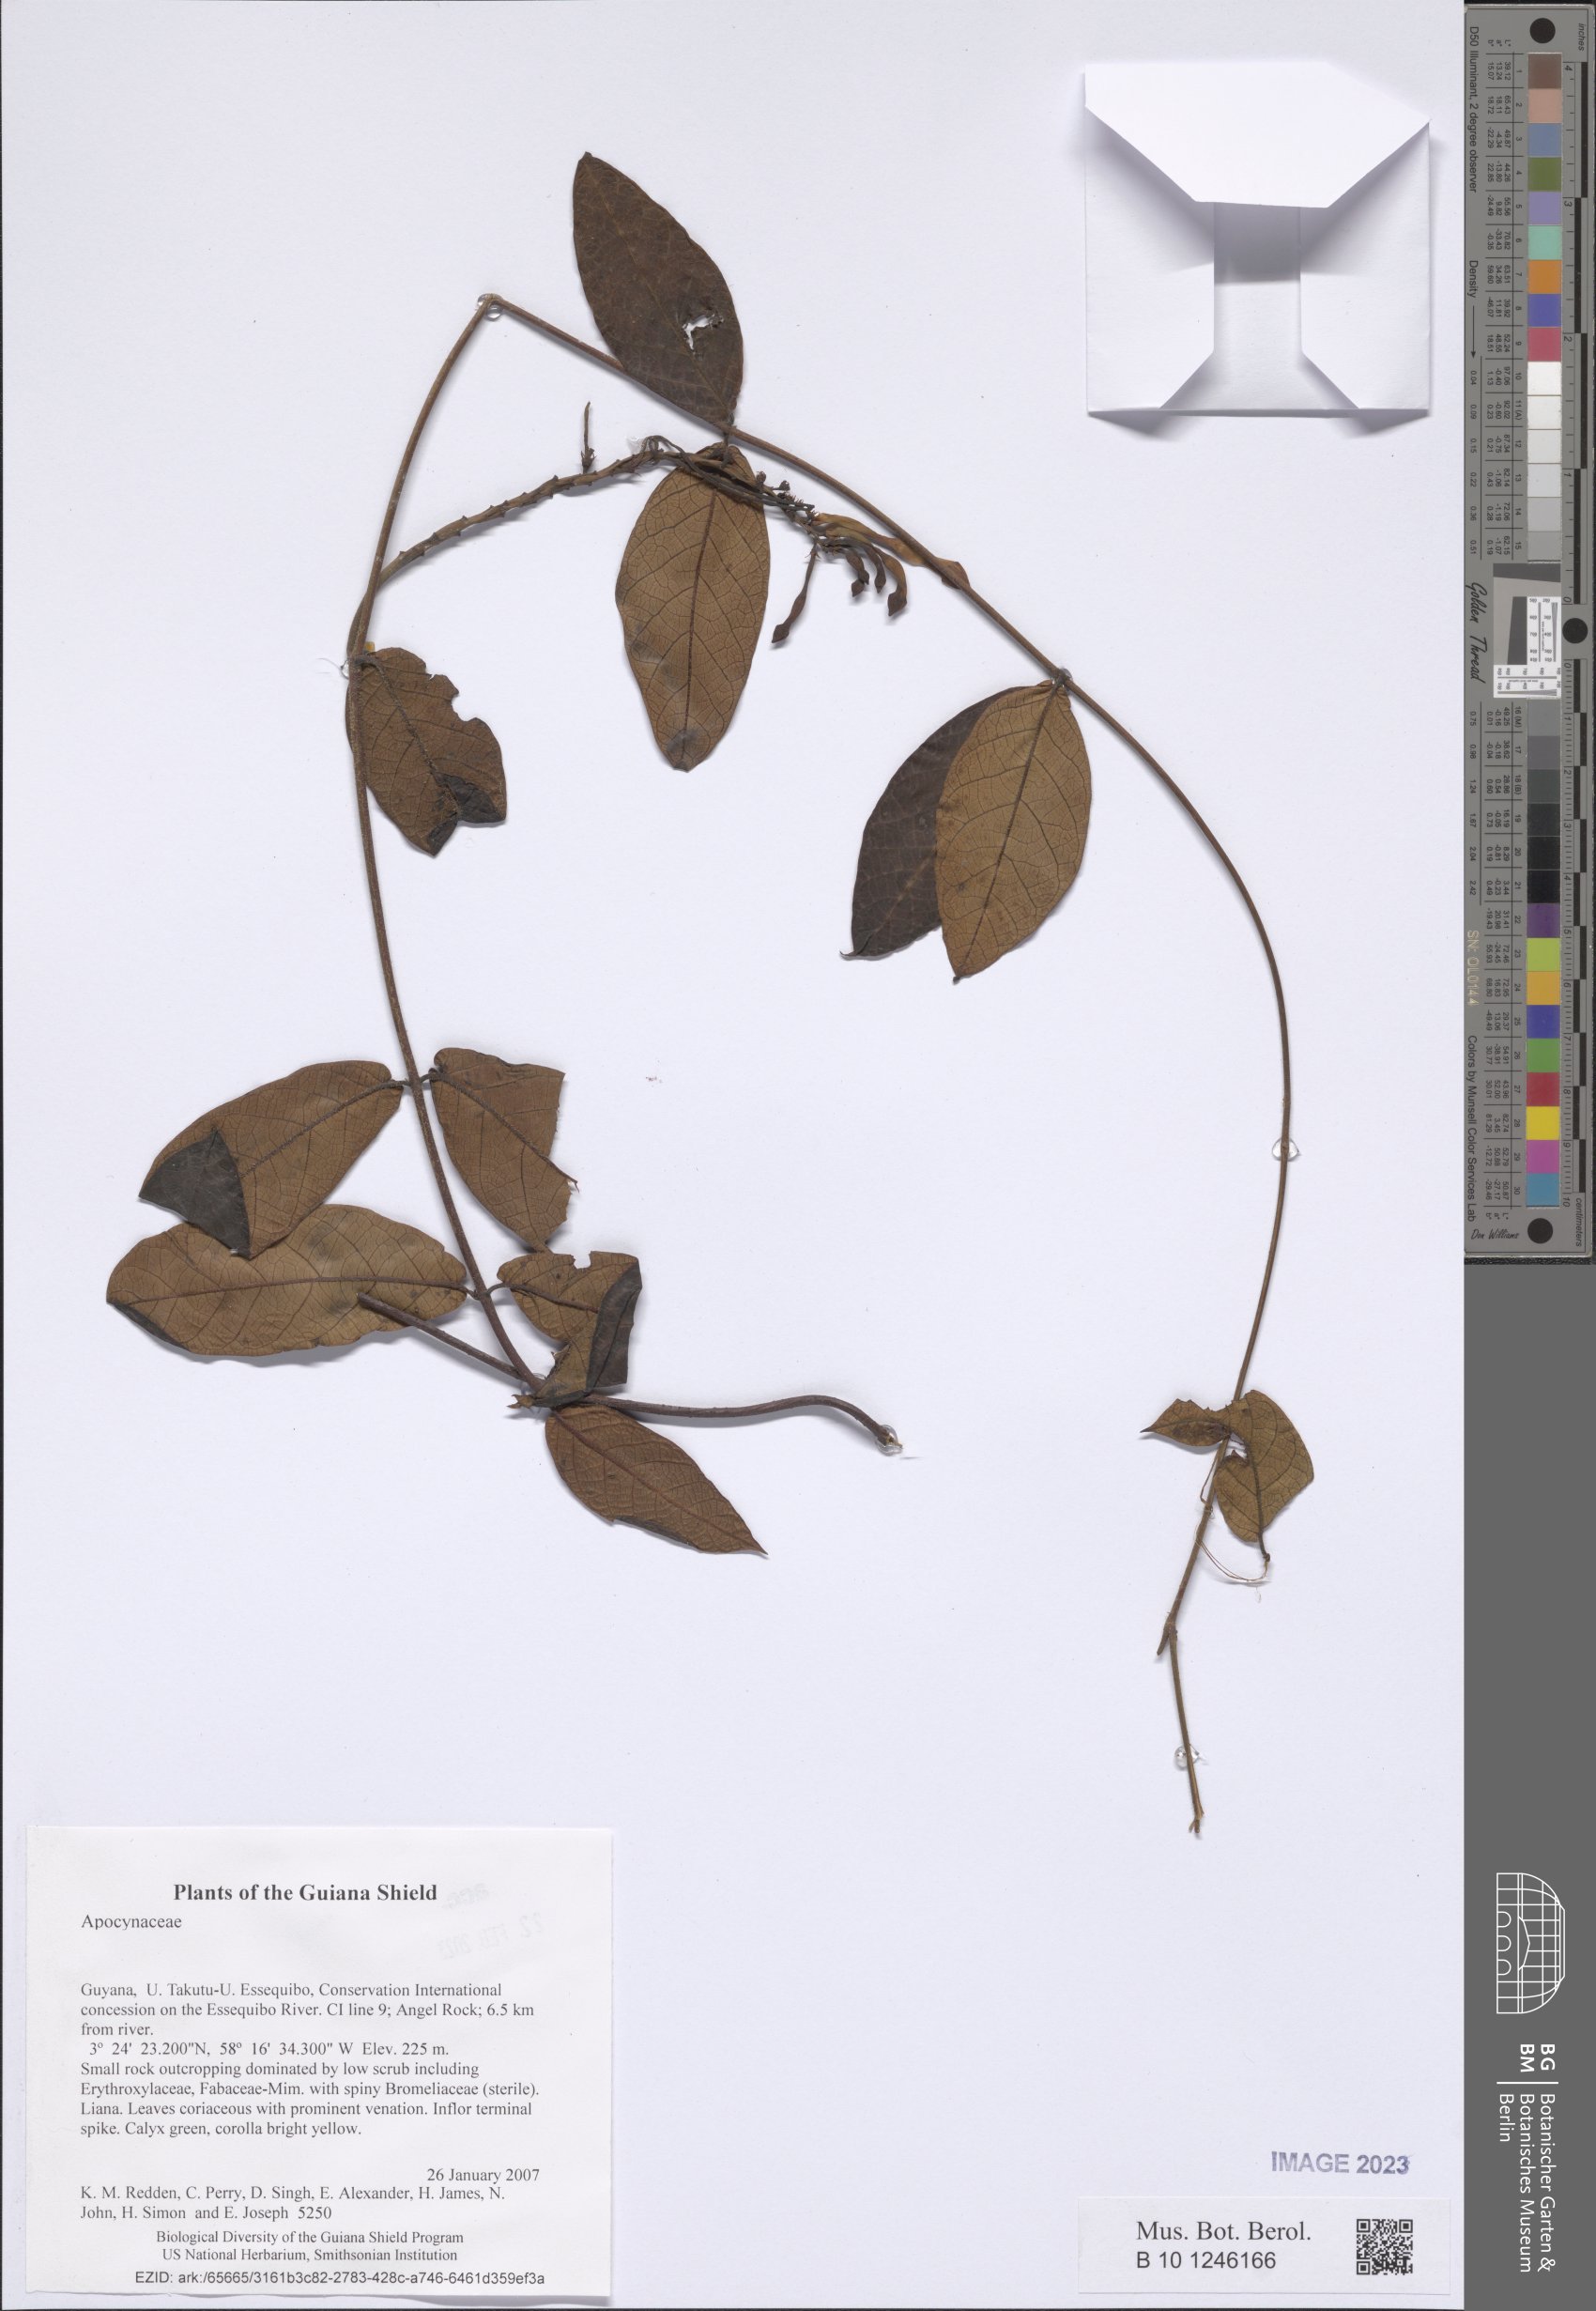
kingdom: Plantae
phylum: Tracheophyta
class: Magnoliopsida
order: Gentianales
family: Apocynaceae
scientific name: Apocynaceae
